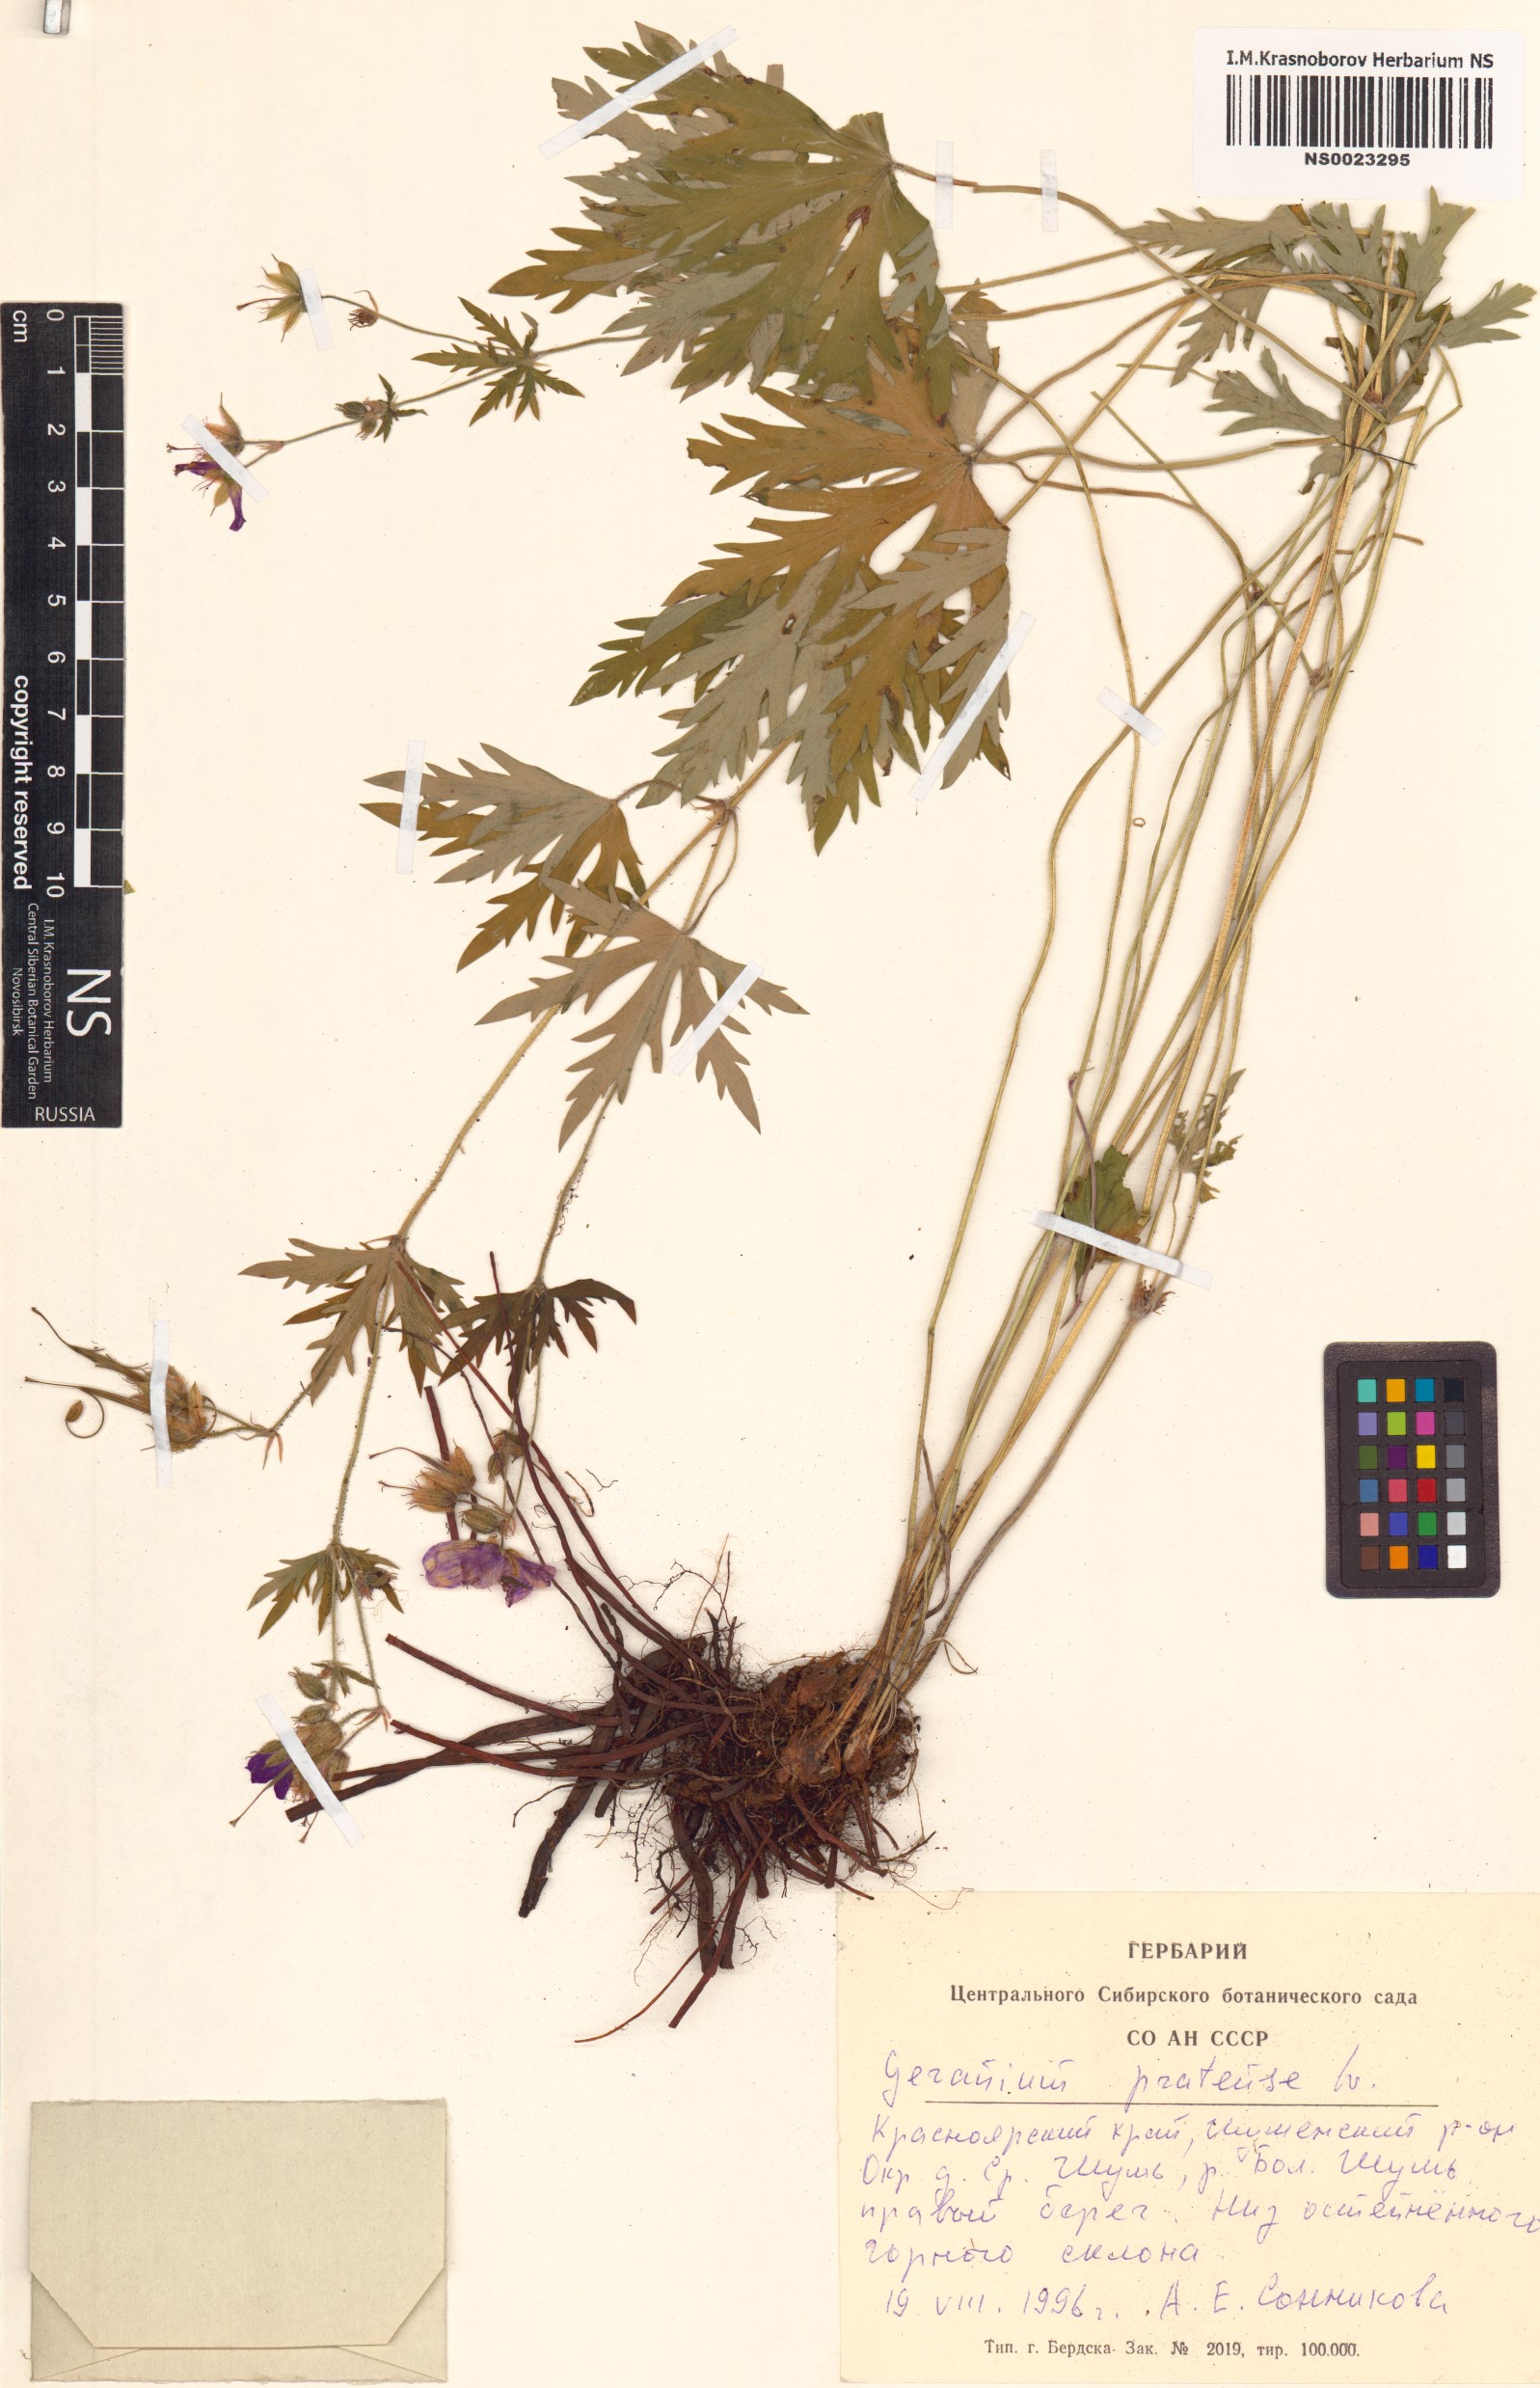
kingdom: Plantae
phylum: Tracheophyta
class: Magnoliopsida
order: Geraniales
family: Geraniaceae
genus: Geranium
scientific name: Geranium pratense
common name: Meadow crane's-bill
